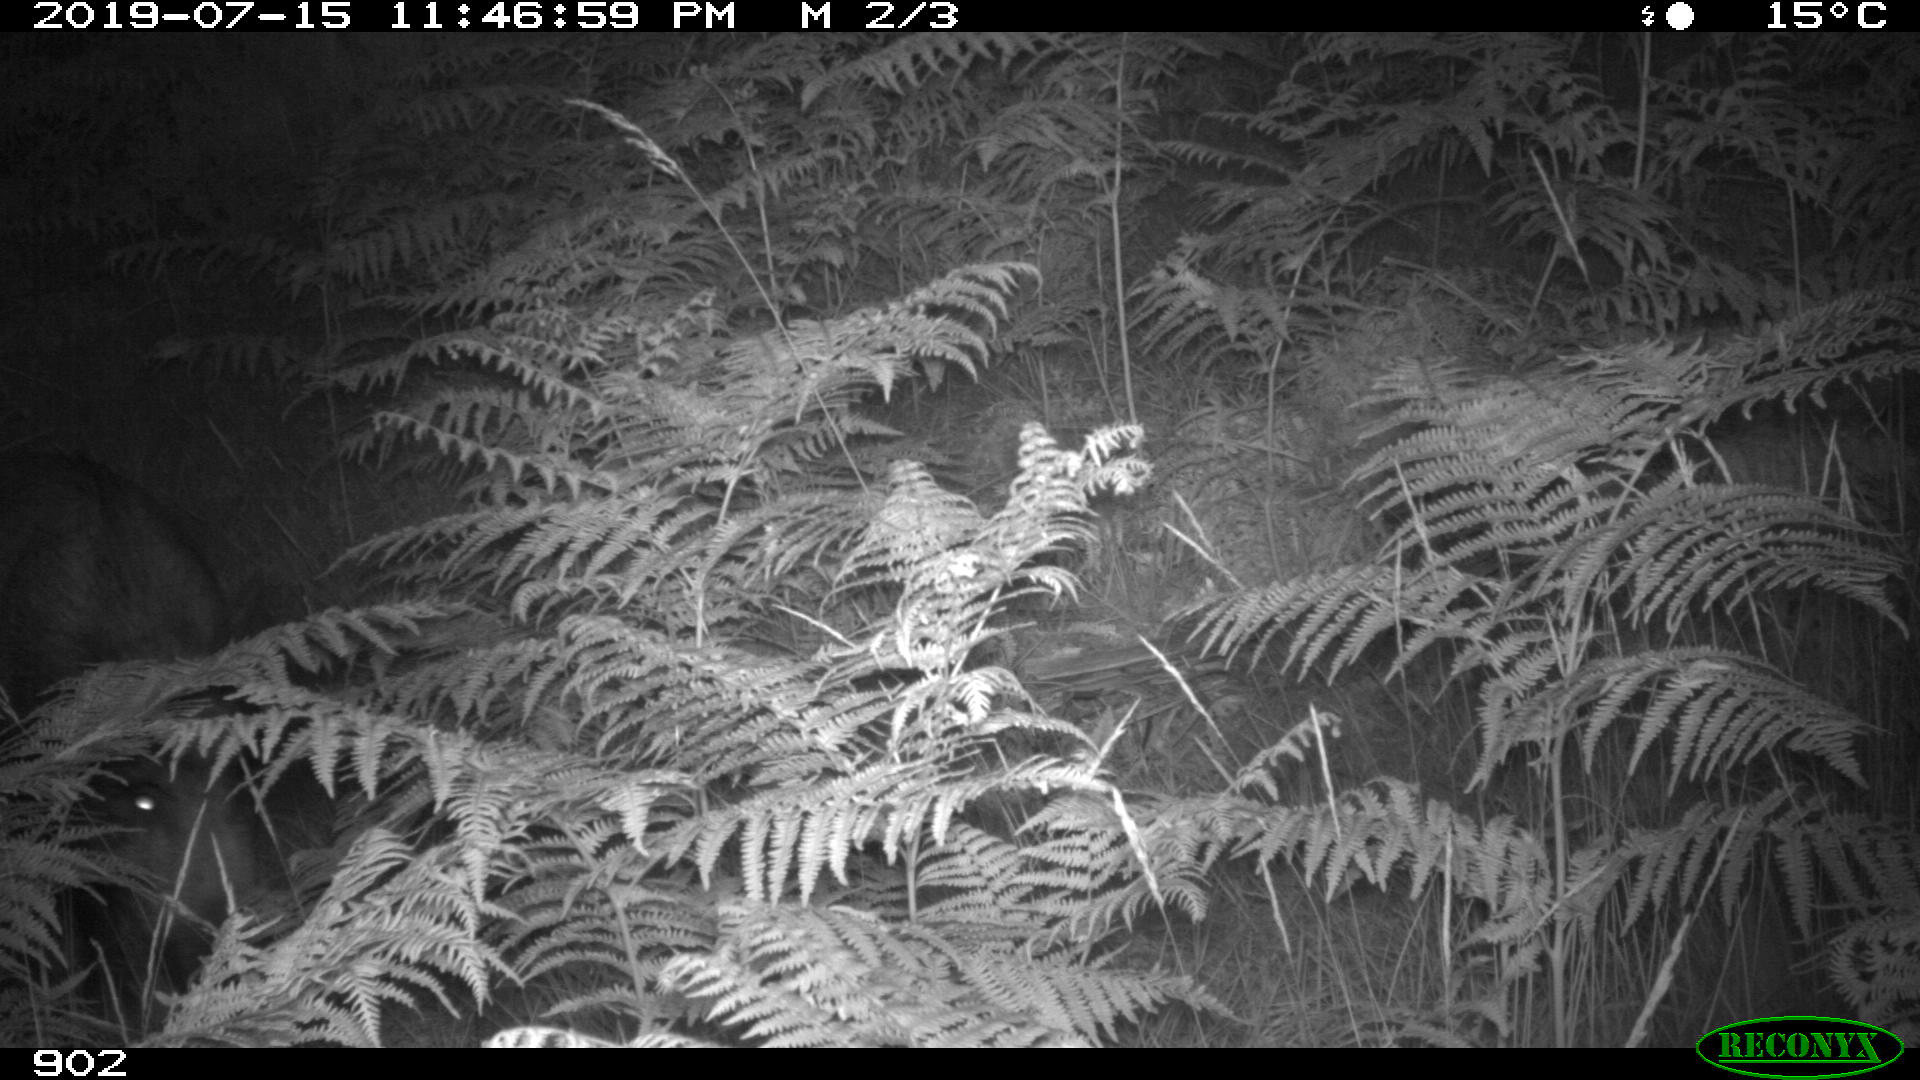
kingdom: Animalia
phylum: Chordata
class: Mammalia
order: Artiodactyla
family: Suidae
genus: Sus
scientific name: Sus scrofa
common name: Wild boar
